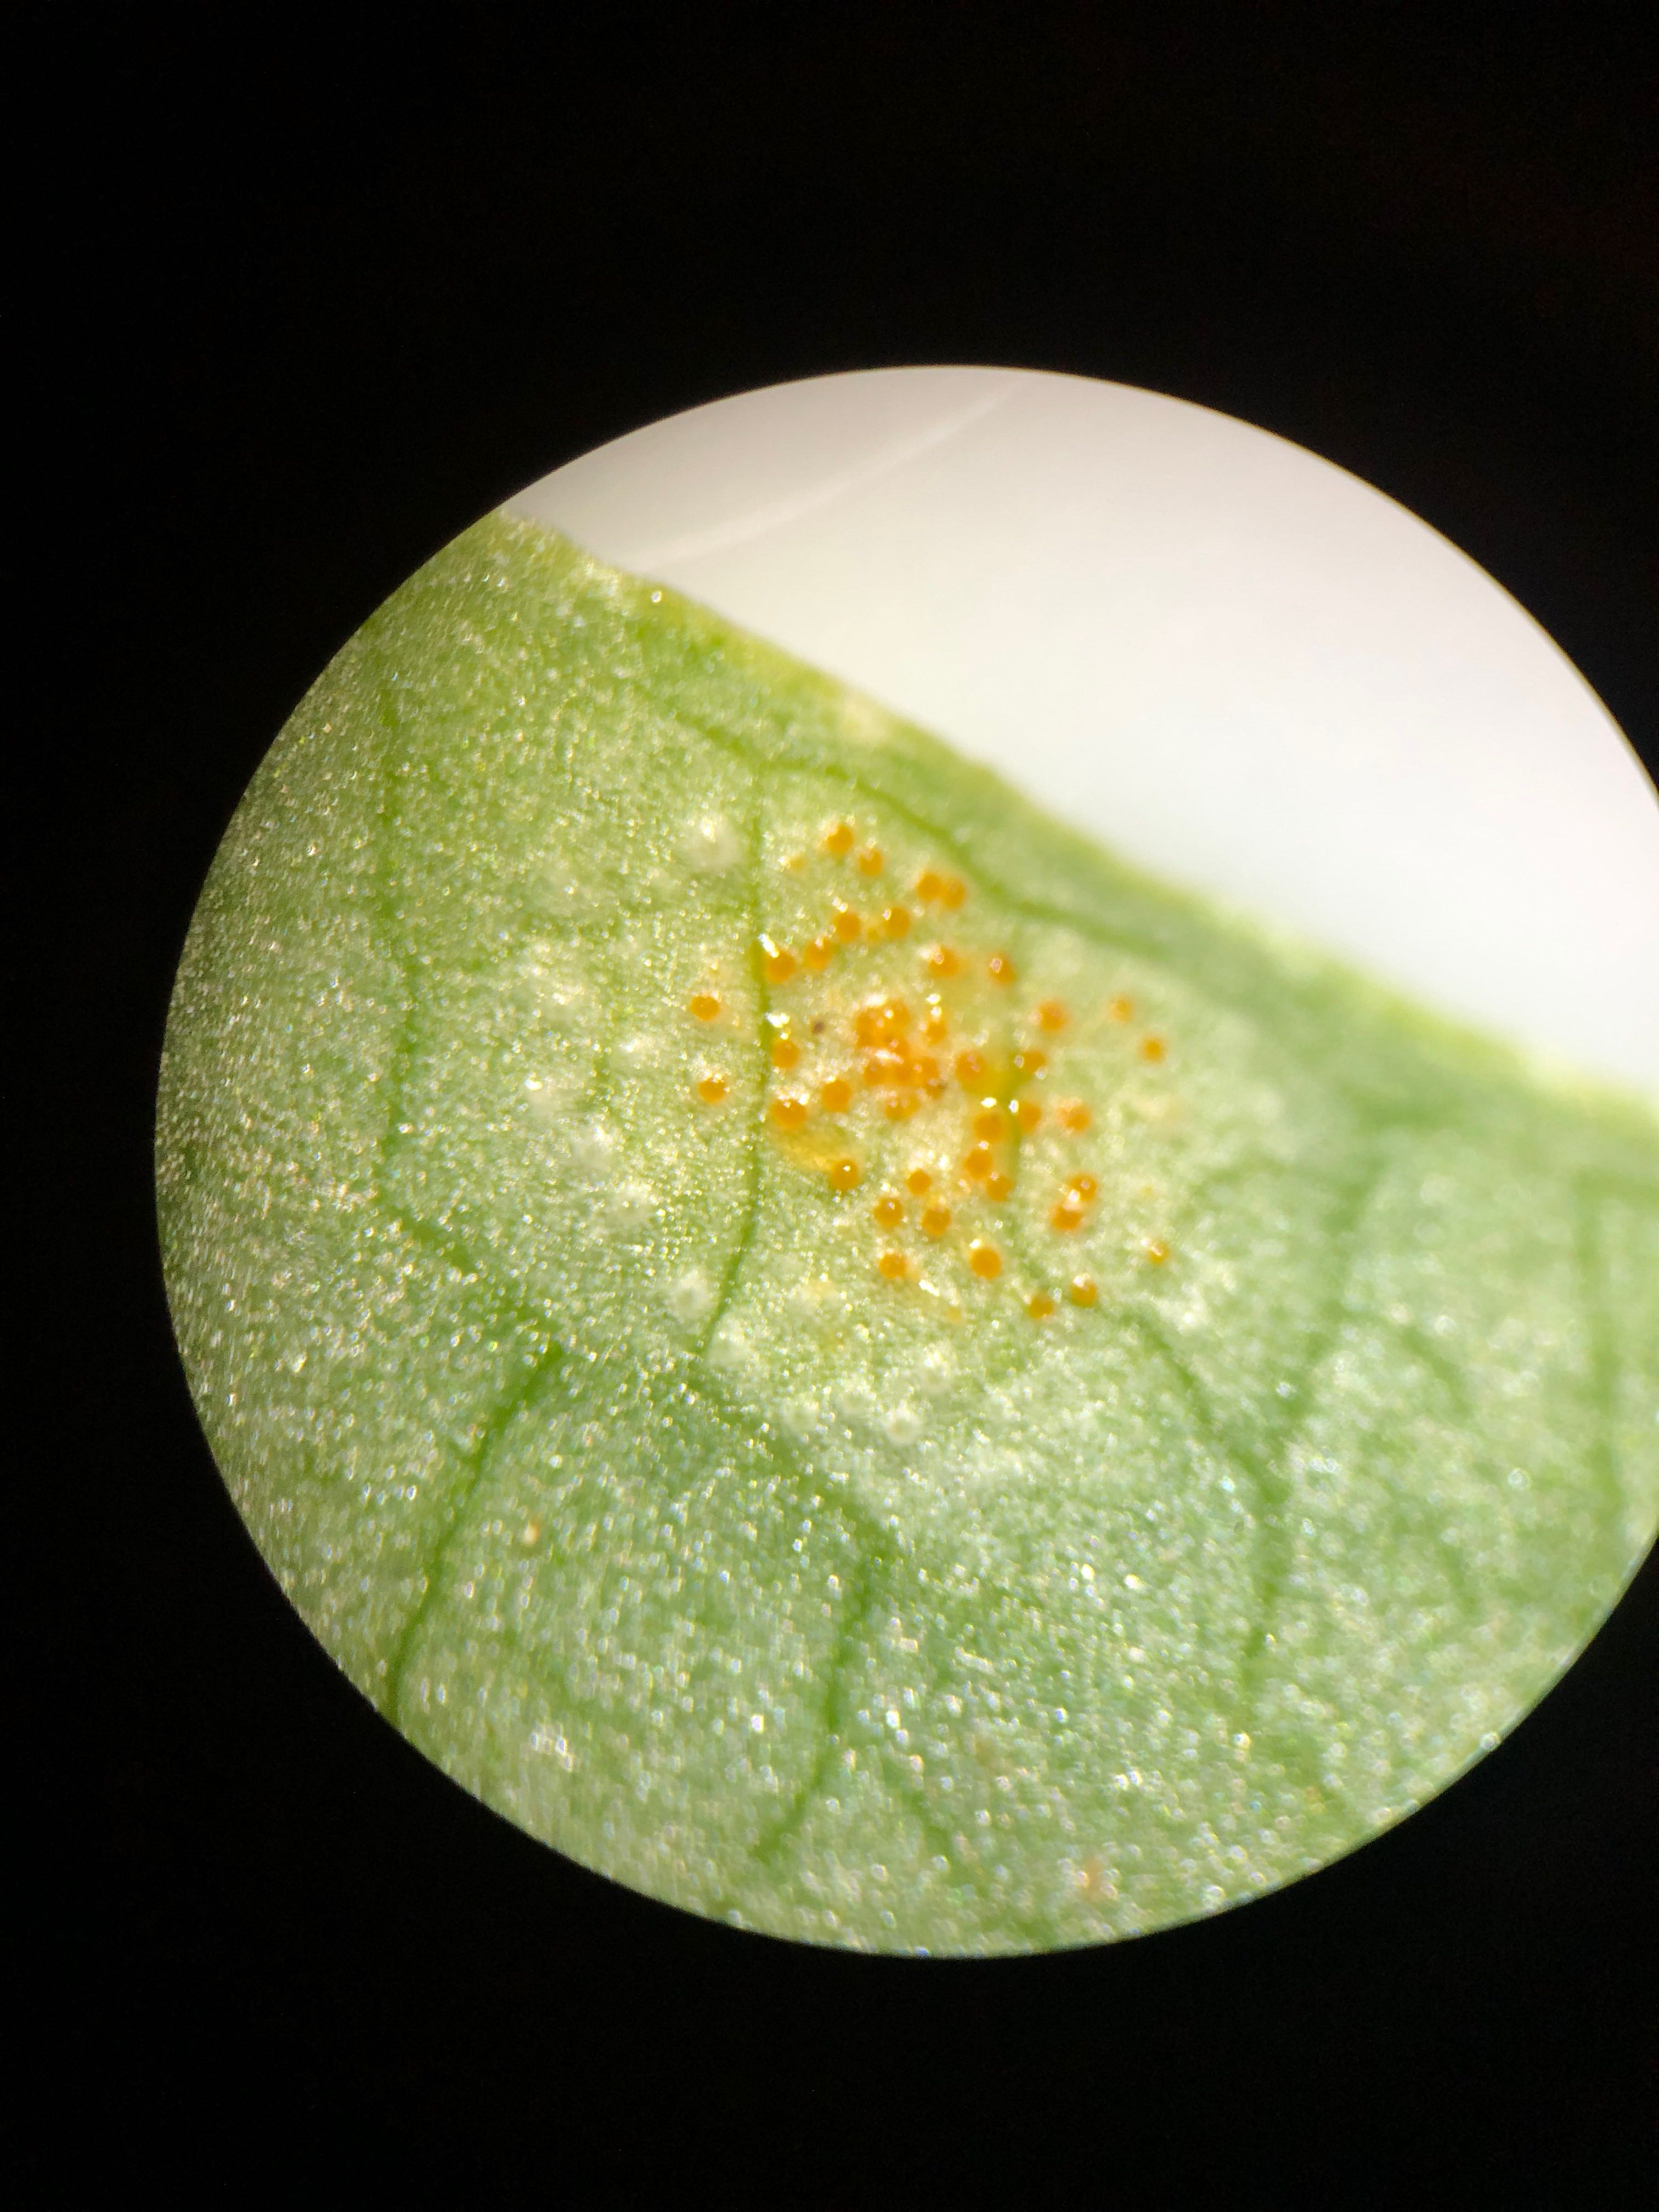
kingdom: Fungi
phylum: Basidiomycota
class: Pucciniomycetes
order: Pucciniales
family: Pucciniaceae
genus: Puccinia
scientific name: Puccinia sessilis
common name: Arum rust
